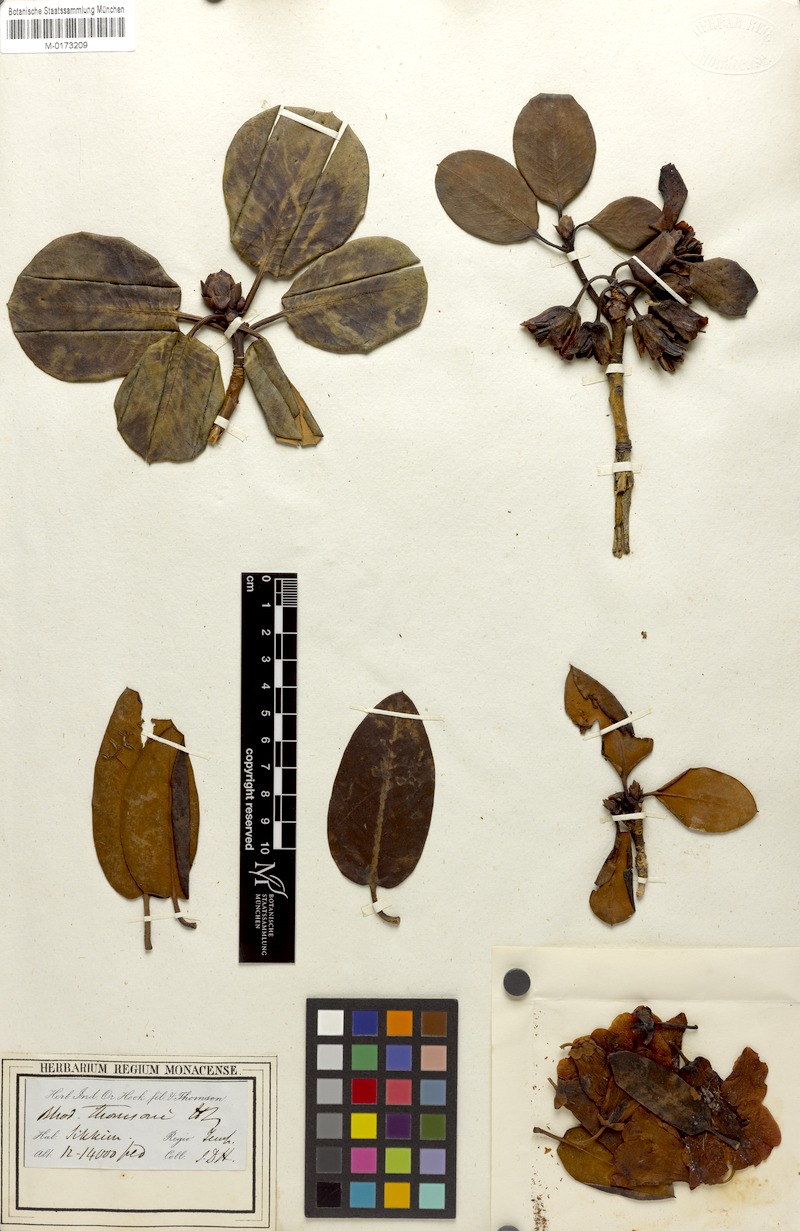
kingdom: Plantae
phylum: Tracheophyta
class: Magnoliopsida
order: Ericales
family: Ericaceae
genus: Rhododendron
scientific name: Rhododendron thomsonii
